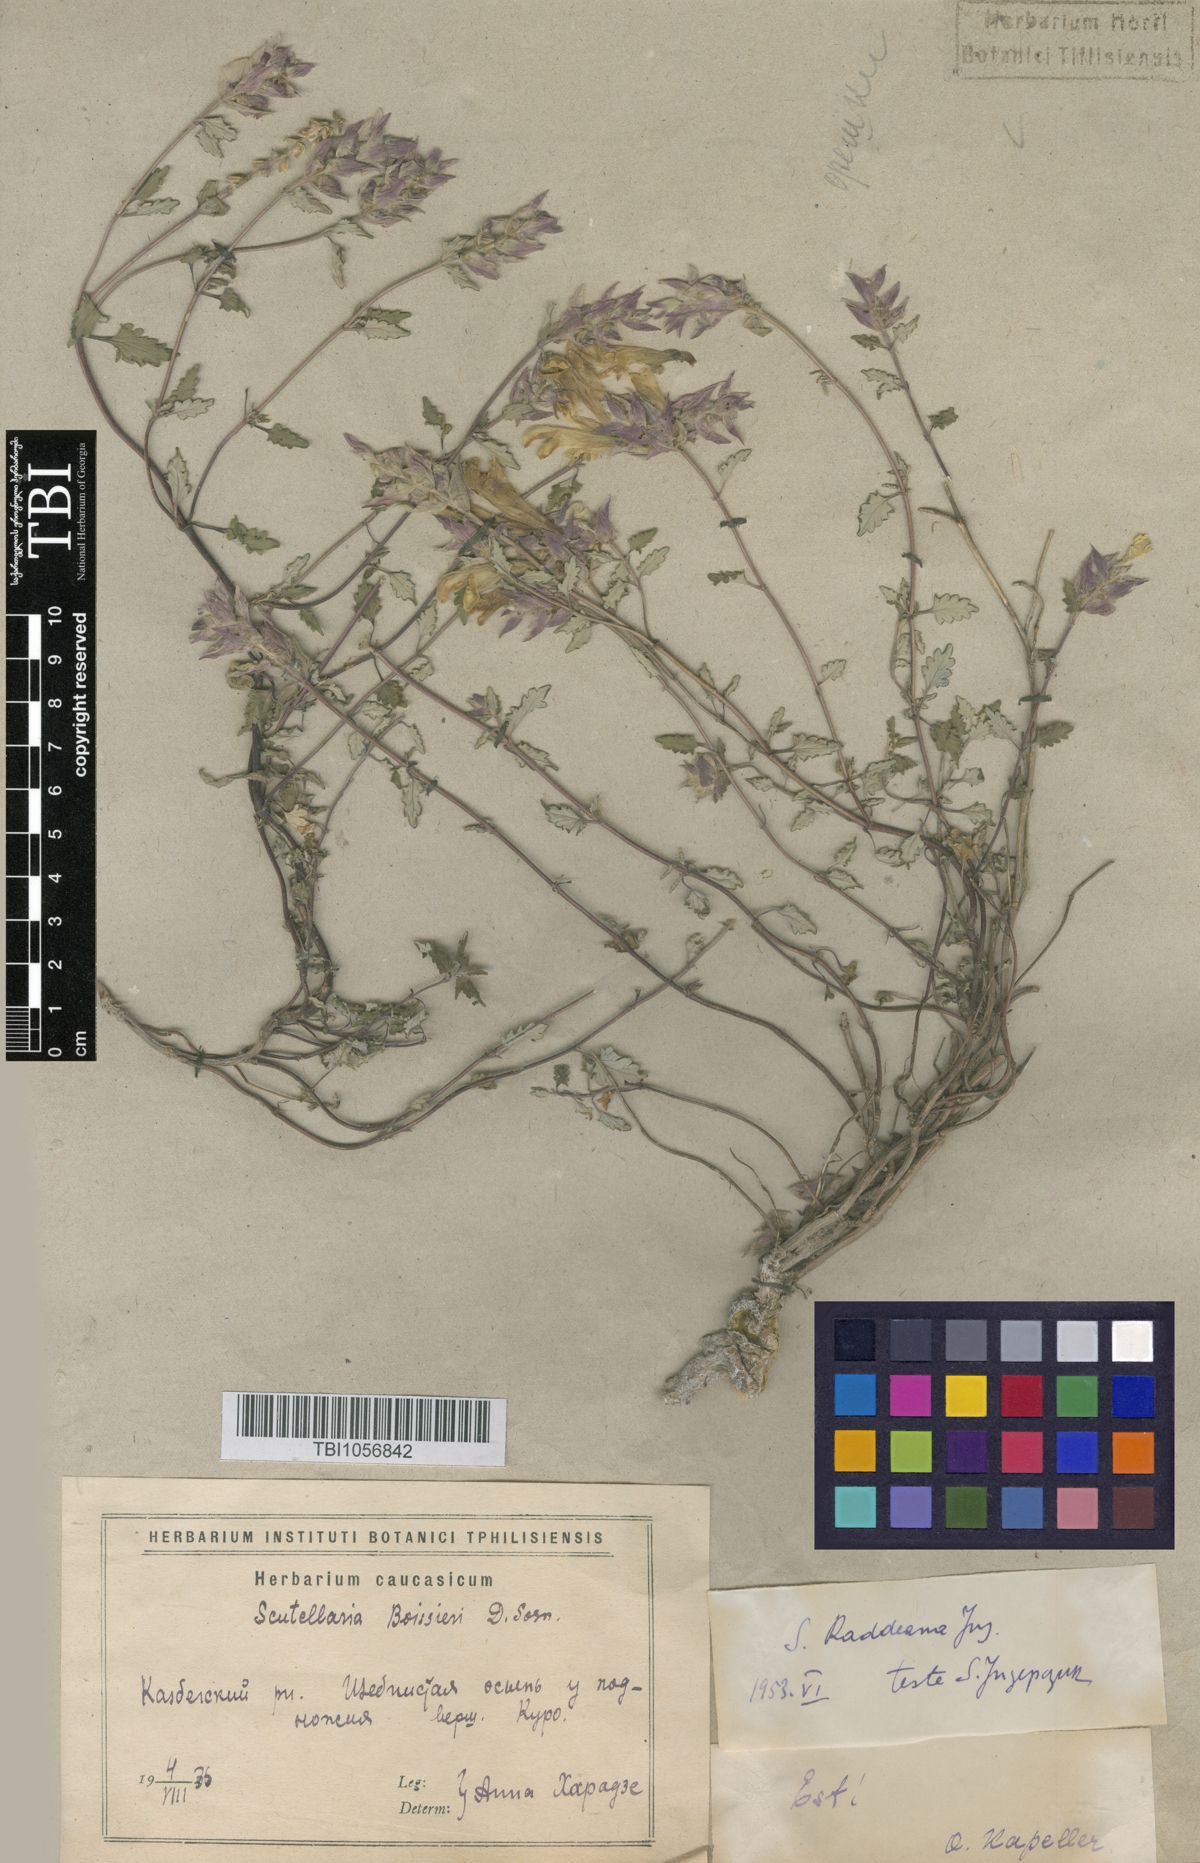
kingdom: Plantae
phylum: Tracheophyta
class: Magnoliopsida
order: Lamiales
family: Lamiaceae
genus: Scutellaria
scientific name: Scutellaria raddeana
